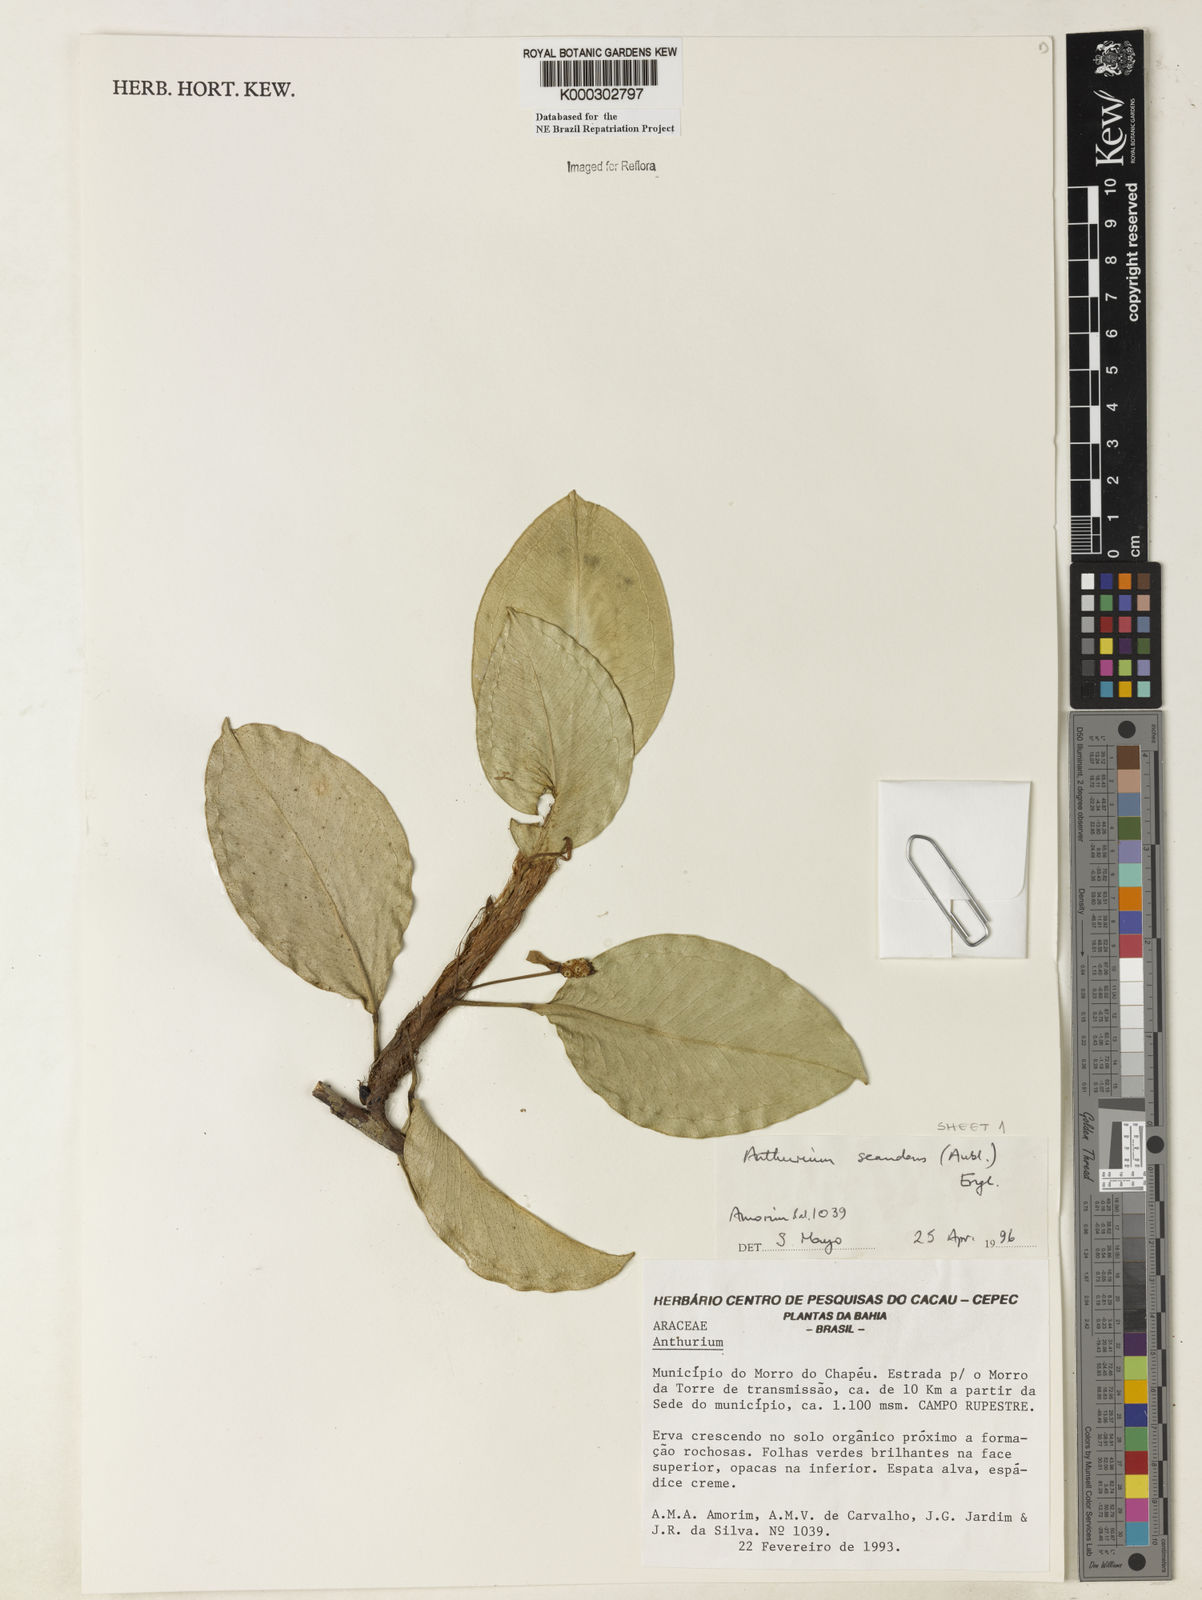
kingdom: Plantae
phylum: Tracheophyta
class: Liliopsida
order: Alismatales
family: Araceae
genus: Anthurium
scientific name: Anthurium scandens
